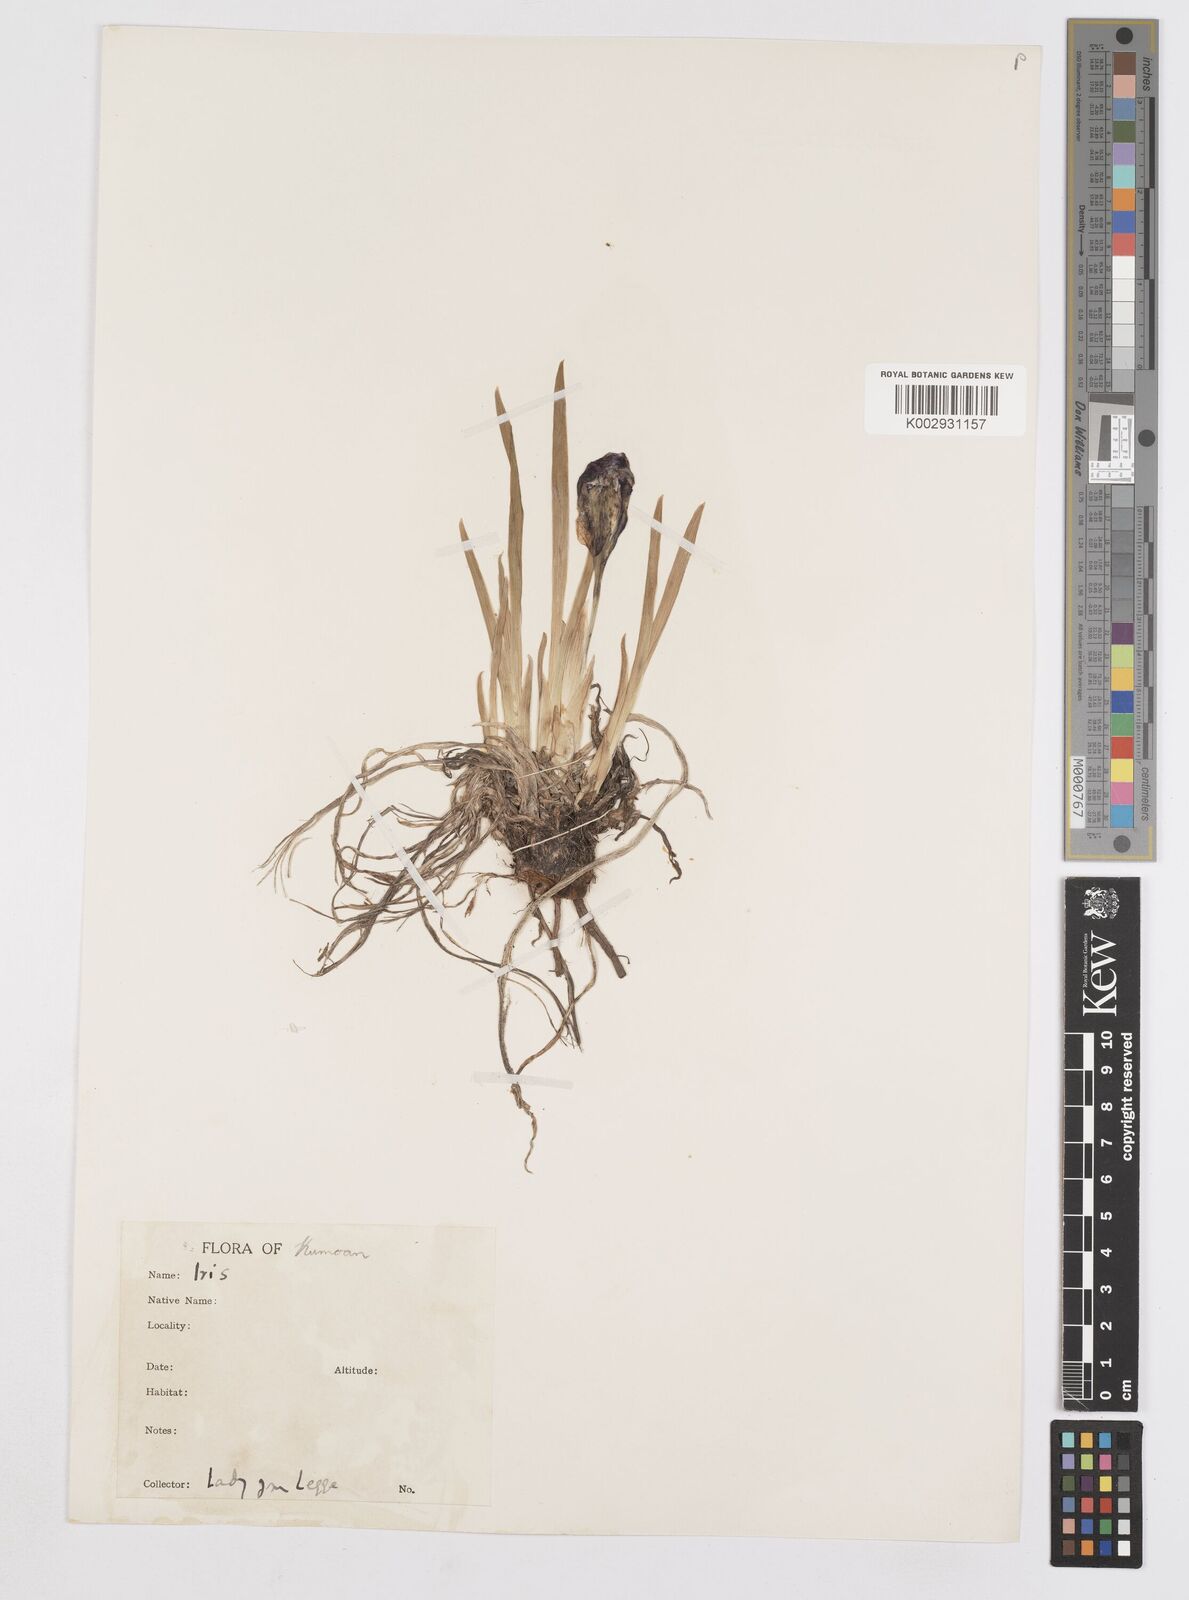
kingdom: Plantae
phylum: Tracheophyta
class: Liliopsida
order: Asparagales
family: Iridaceae
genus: Iris
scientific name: Iris kemaonensis
